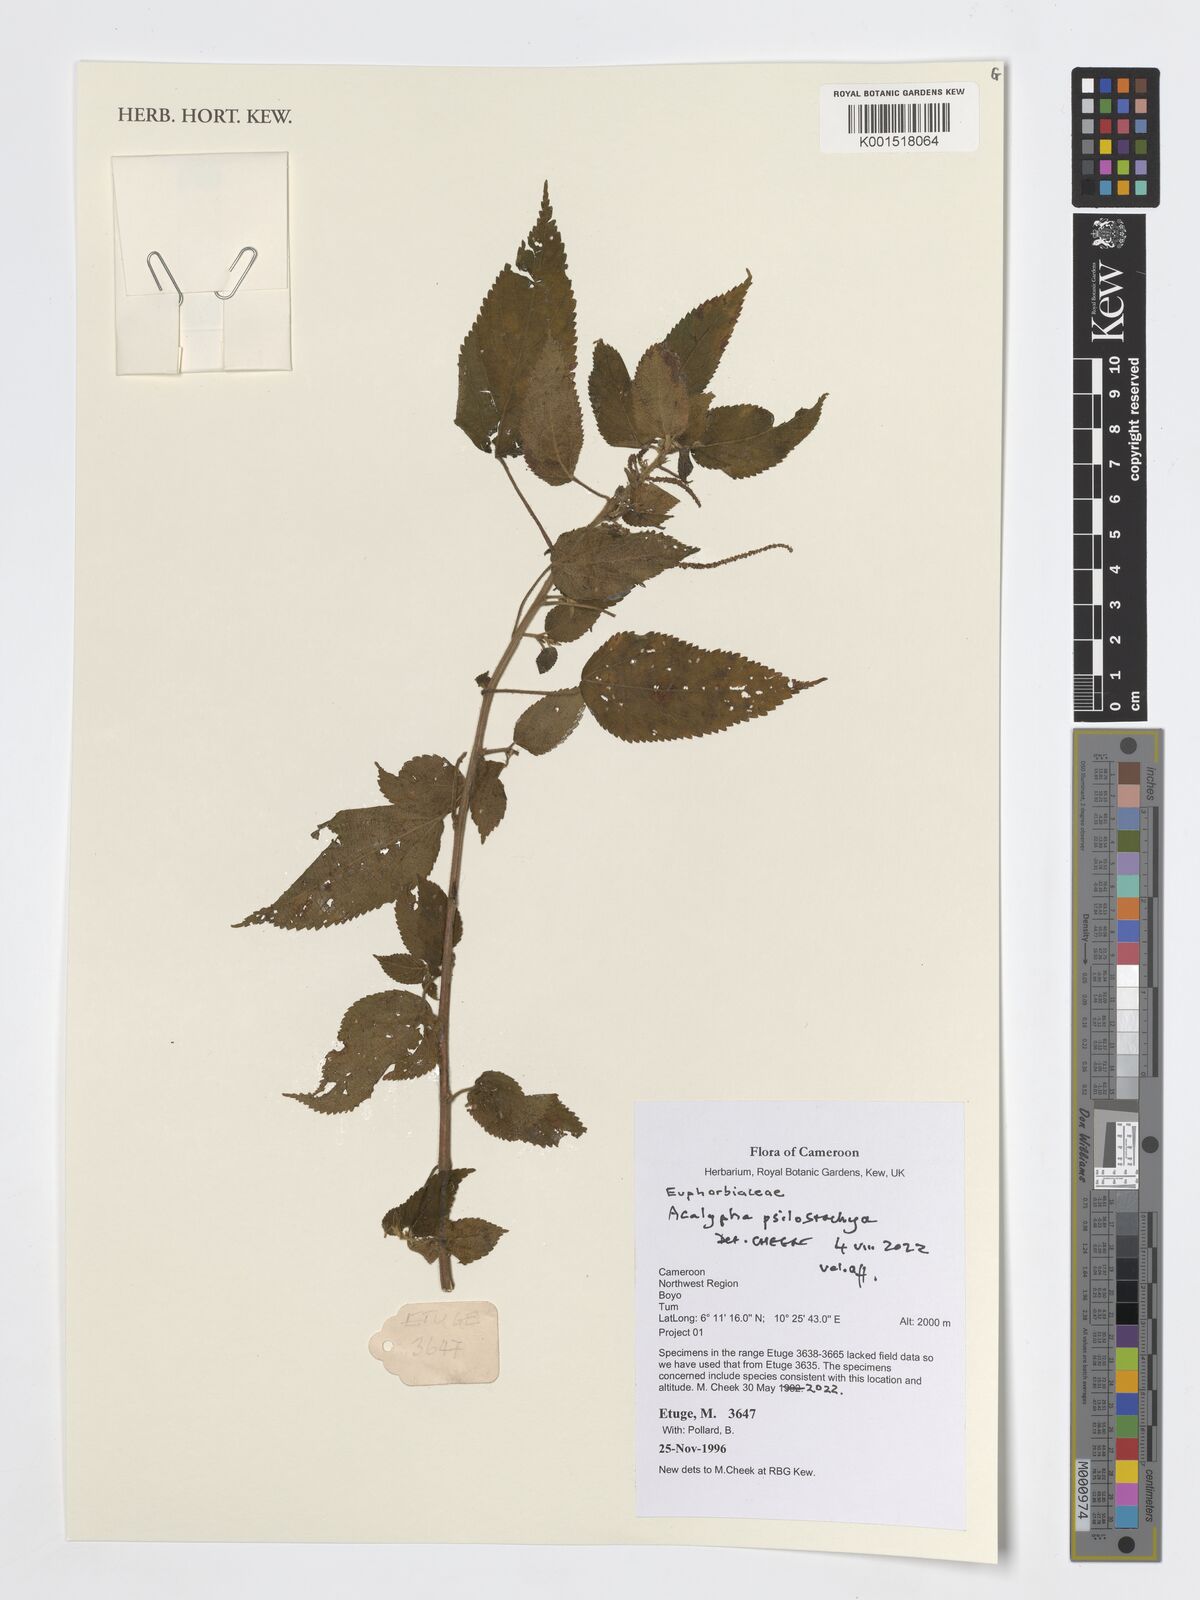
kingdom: Plantae
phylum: Tracheophyta
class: Magnoliopsida
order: Malpighiales
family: Euphorbiaceae
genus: Acalypha
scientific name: Acalypha psilostachya
